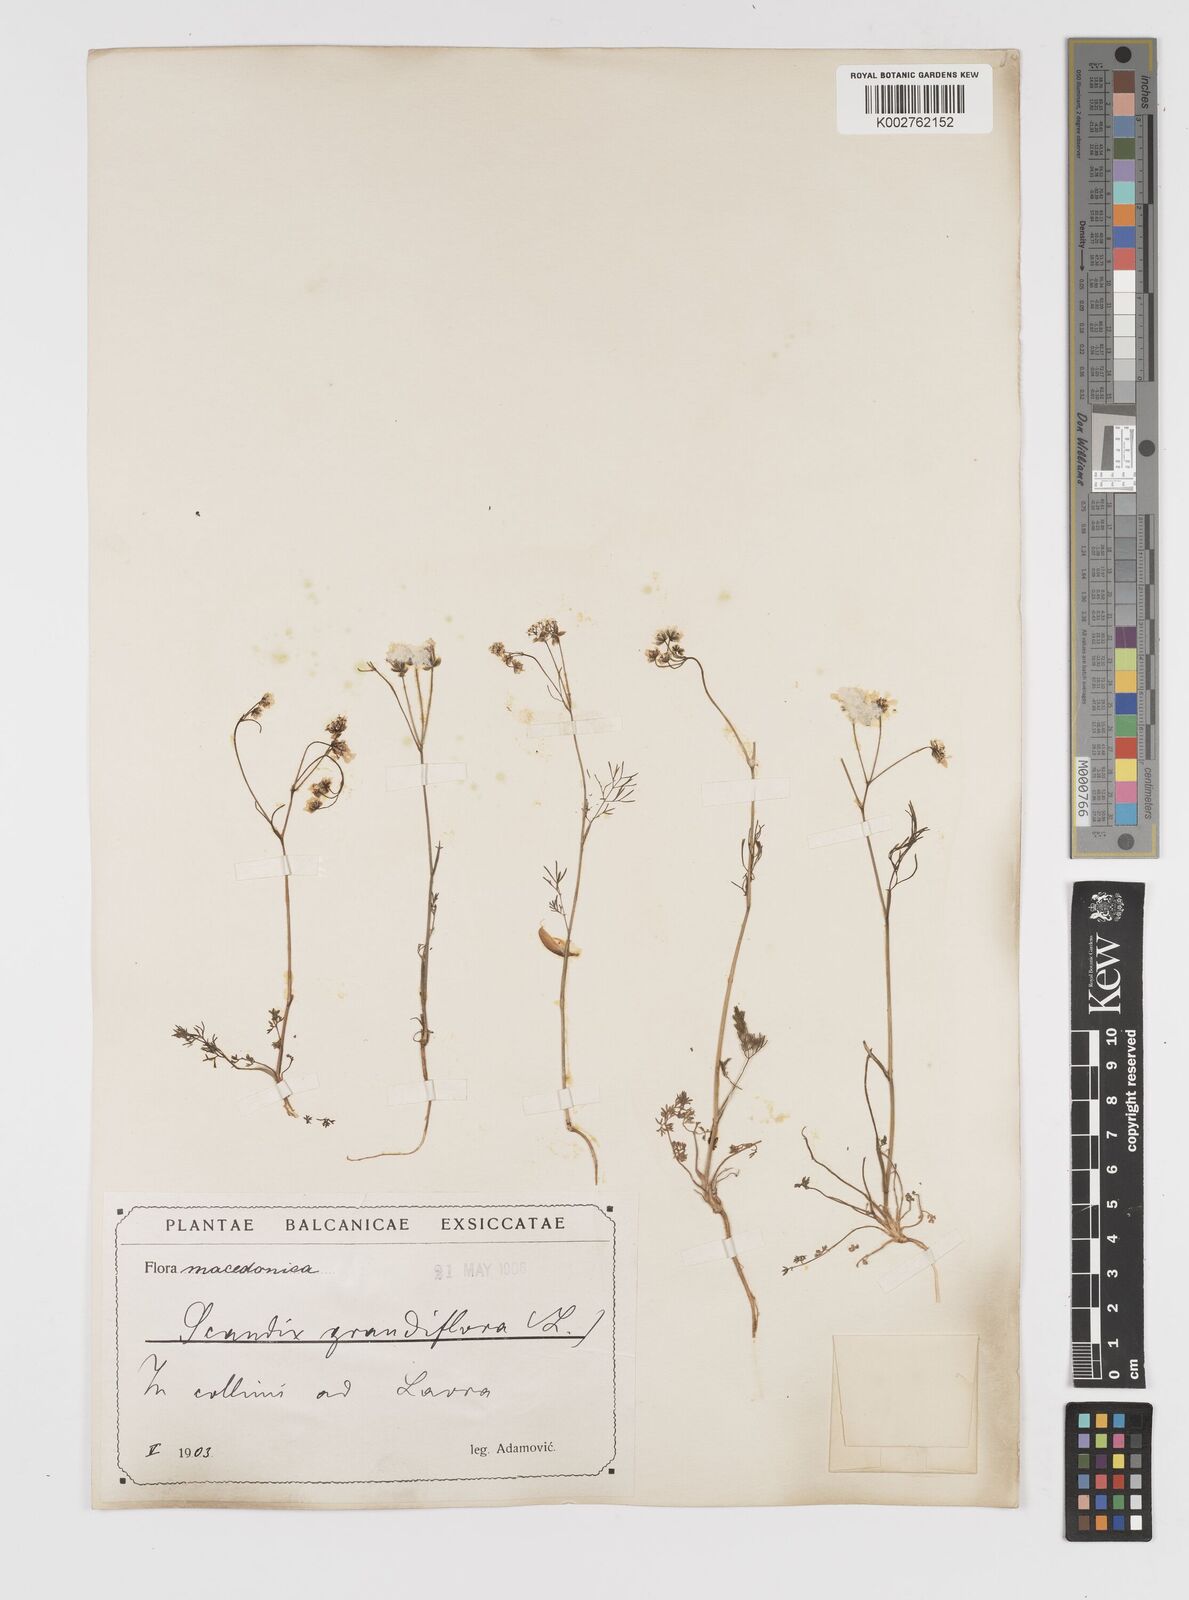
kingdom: Plantae
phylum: Tracheophyta
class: Magnoliopsida
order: Apiales
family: Apiaceae
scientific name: Apiaceae
